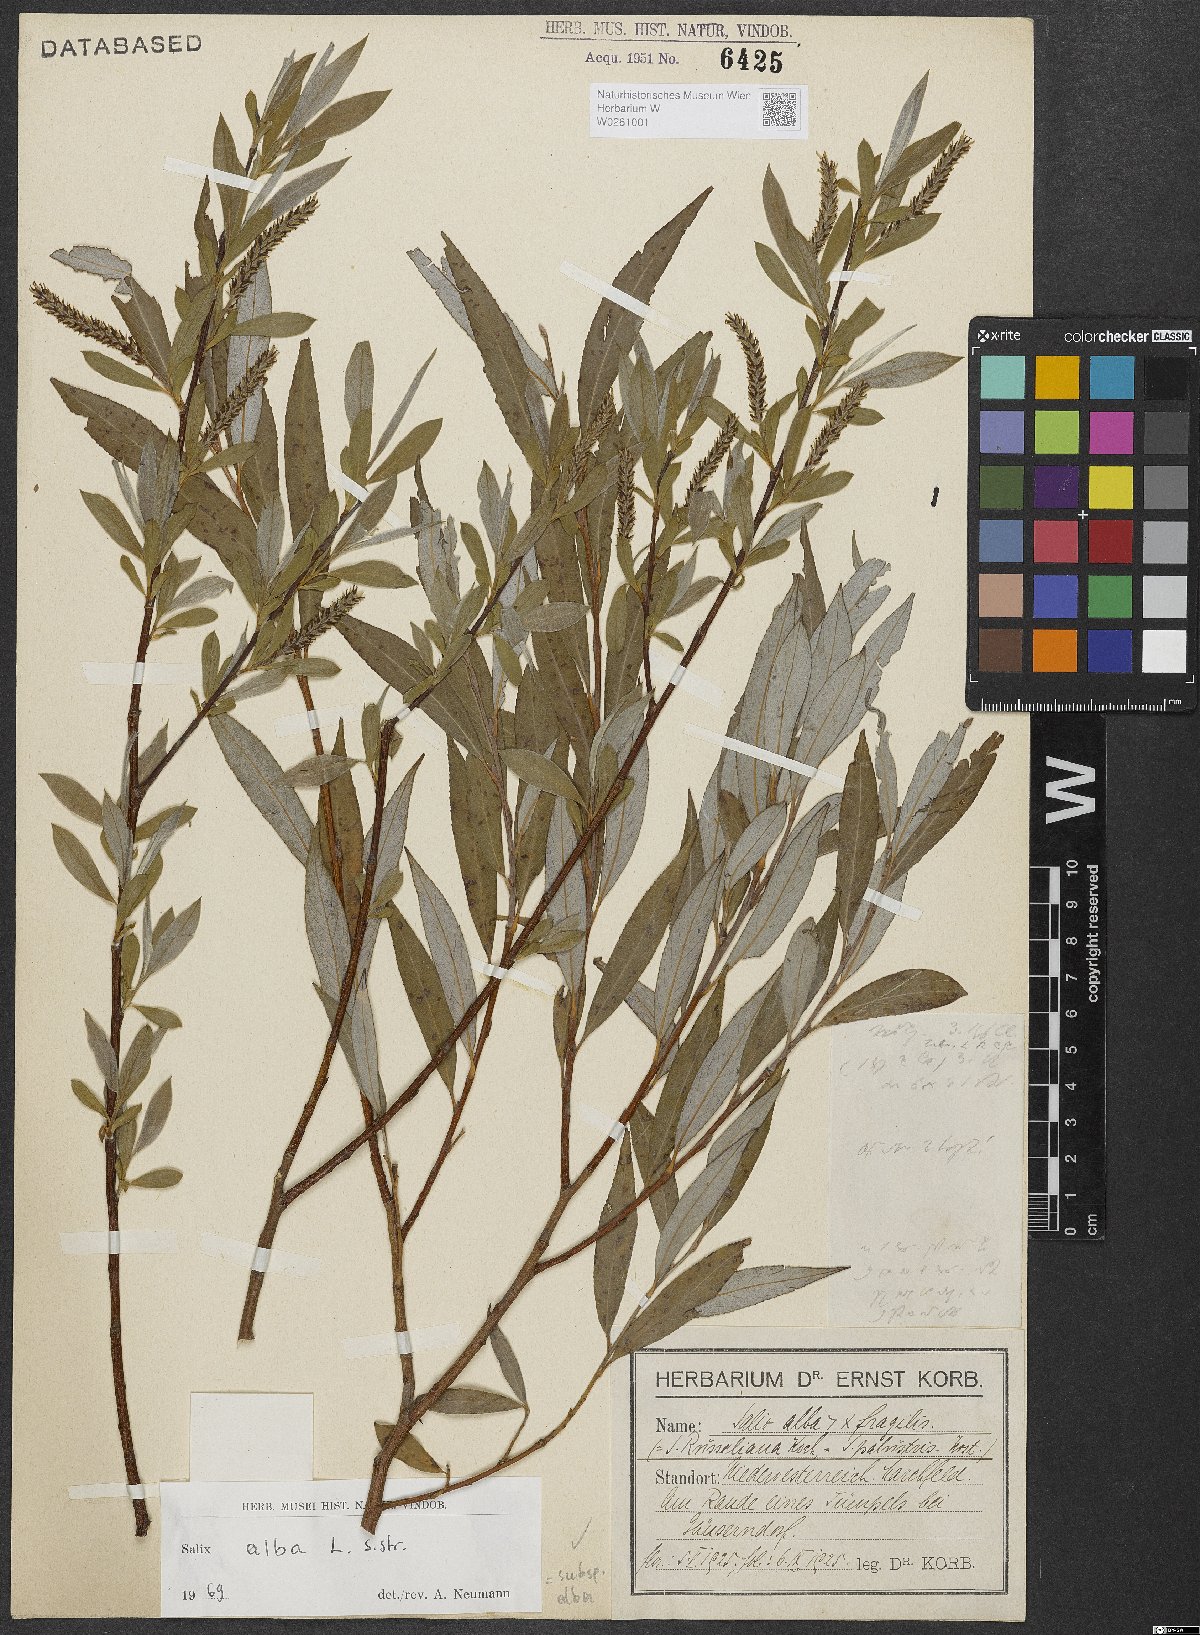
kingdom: Plantae
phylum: Tracheophyta
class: Magnoliopsida
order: Malpighiales
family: Salicaceae
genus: Salix
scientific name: Salix alba
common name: White willow
